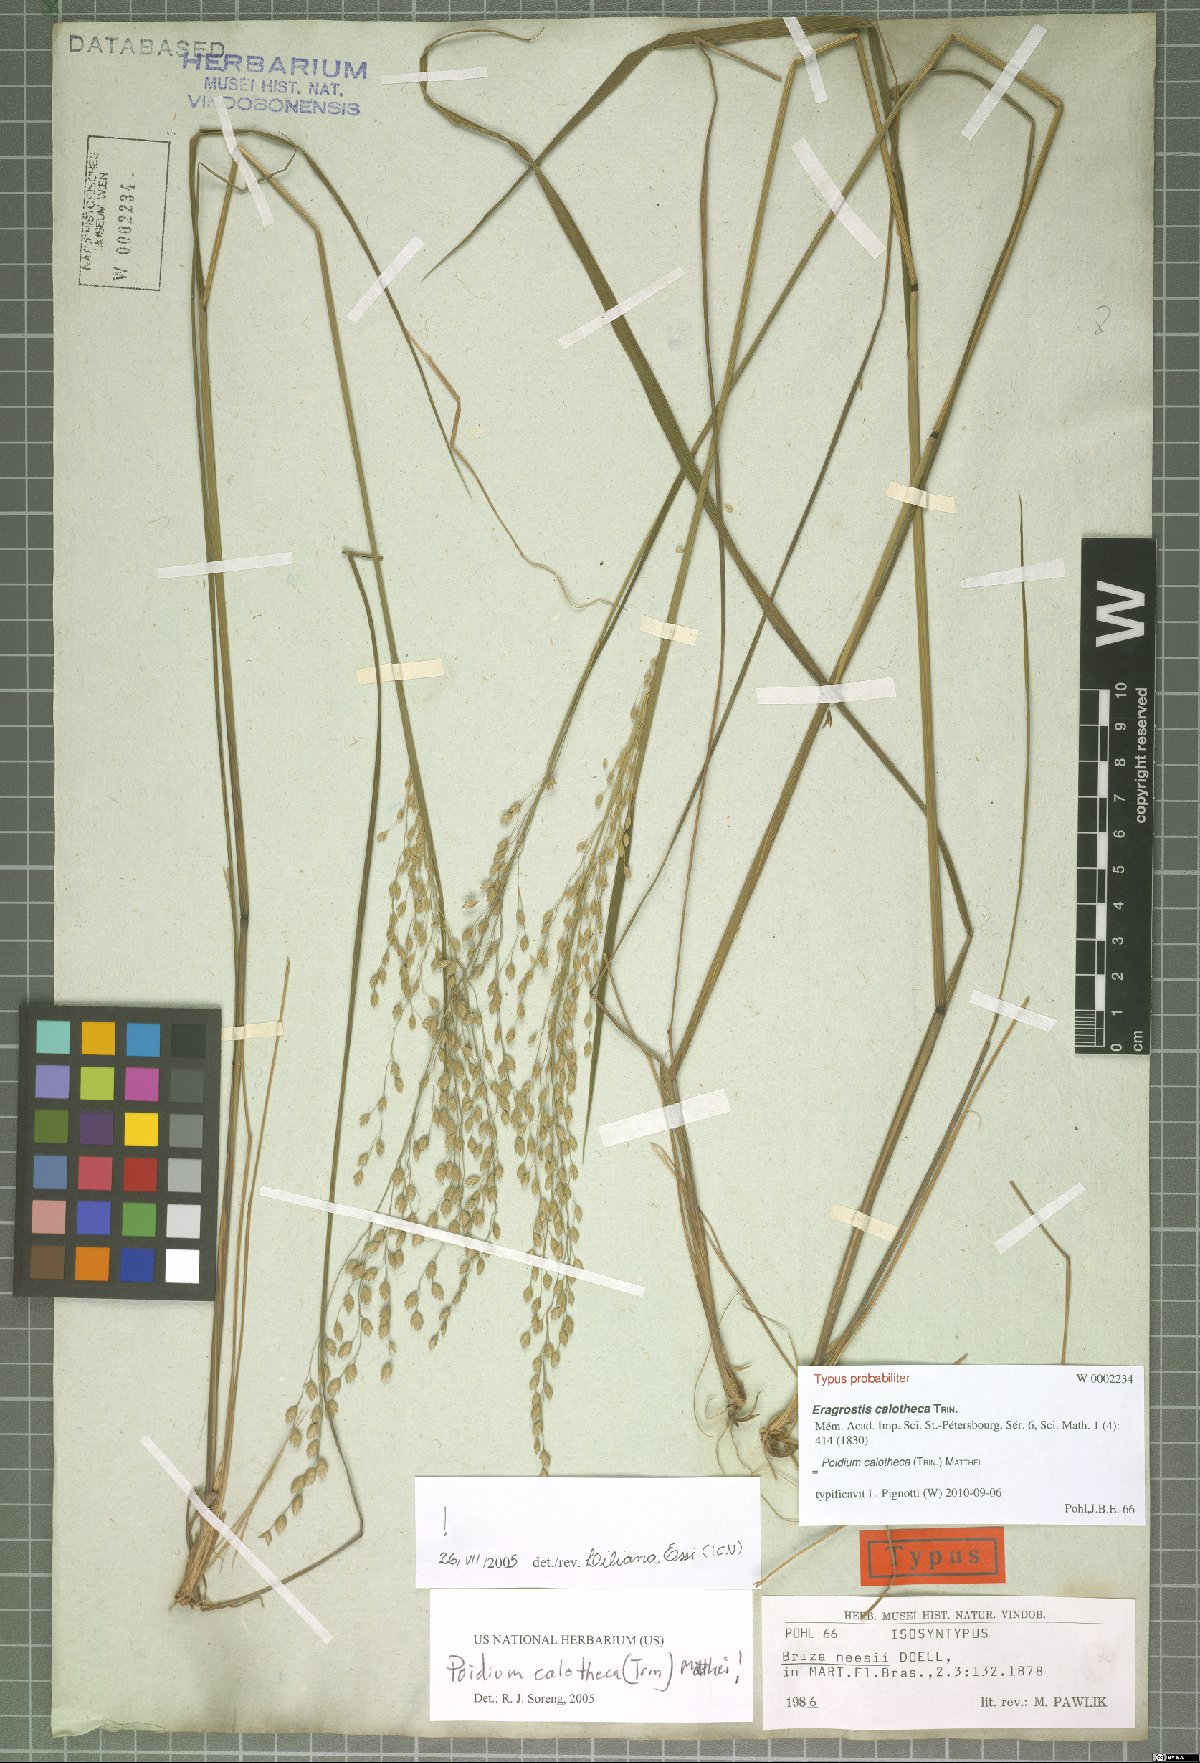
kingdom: Plantae
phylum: Tracheophyta
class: Liliopsida
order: Poales
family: Poaceae
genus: Poidium
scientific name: Poidium calotheca
